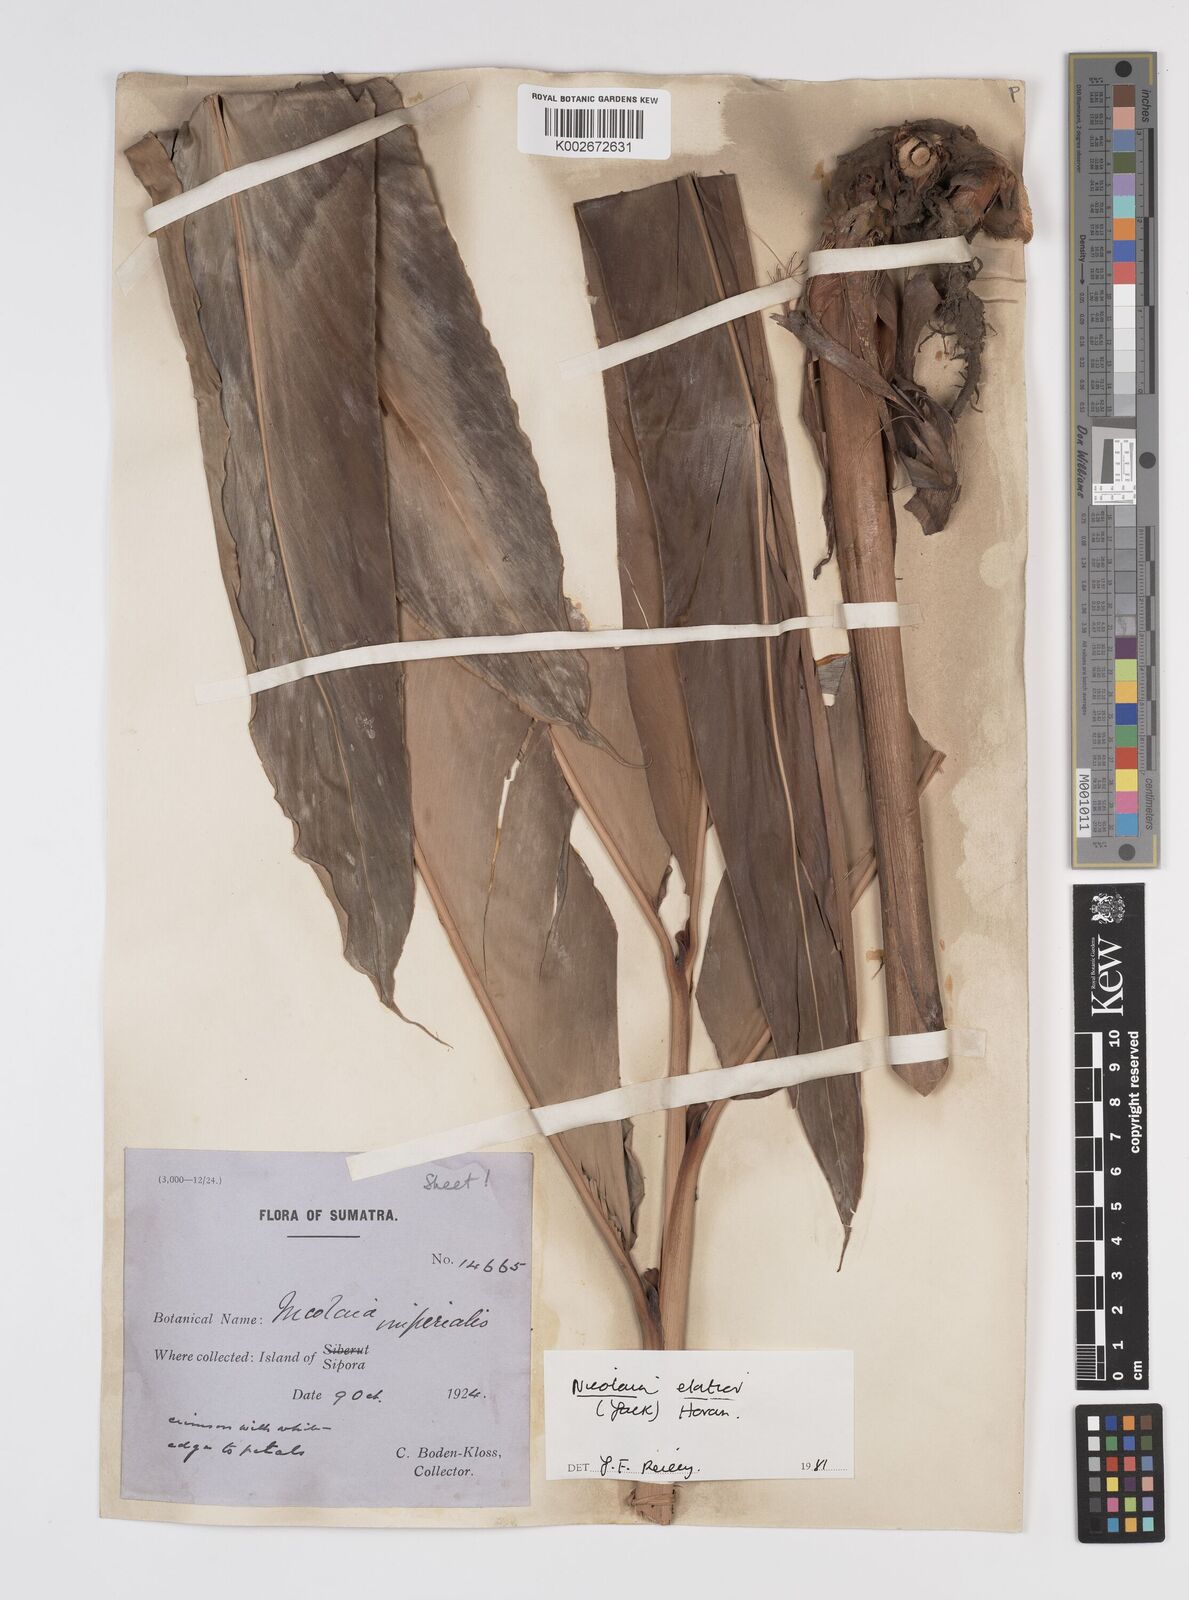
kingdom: Plantae
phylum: Tracheophyta
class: Liliopsida
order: Zingiberales
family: Zingiberaceae
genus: Etlingera
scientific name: Etlingera elatior
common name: Philippine waxflower
